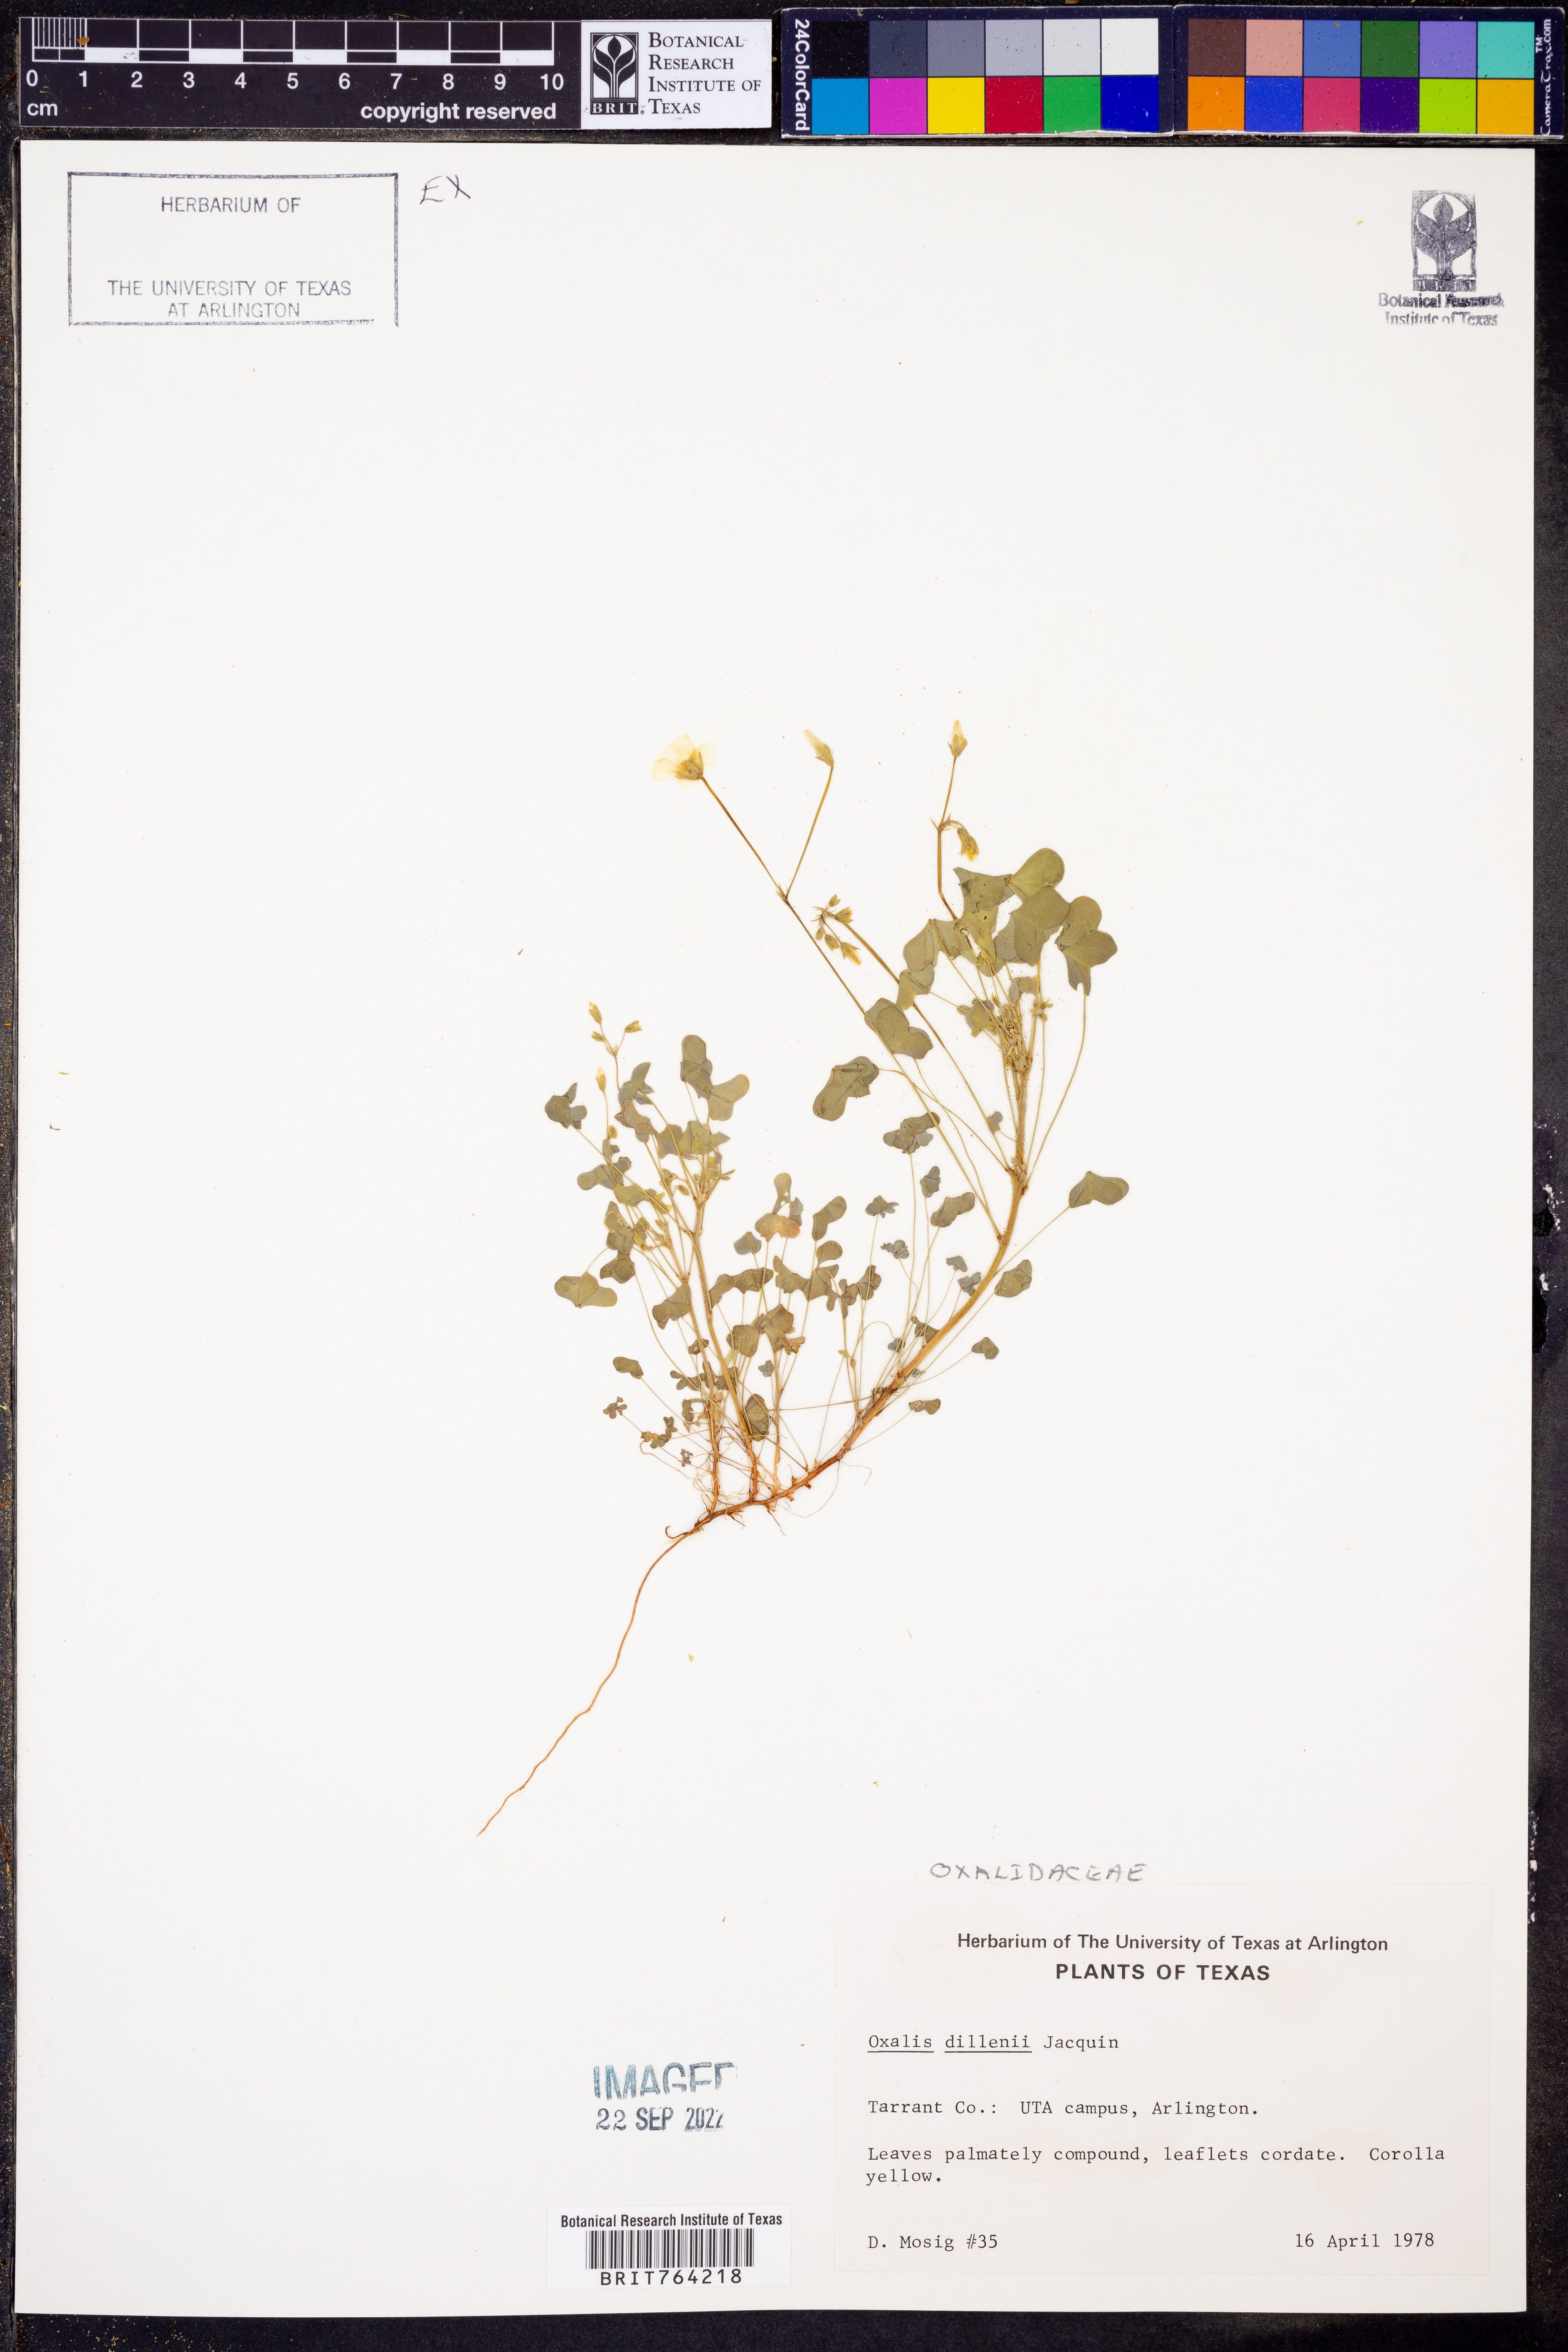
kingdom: Plantae
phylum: Tracheophyta
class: Magnoliopsida
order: Oxalidales
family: Oxalidaceae
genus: Oxalis
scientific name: Oxalis dillenii
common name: Sussex yellow-sorrel
